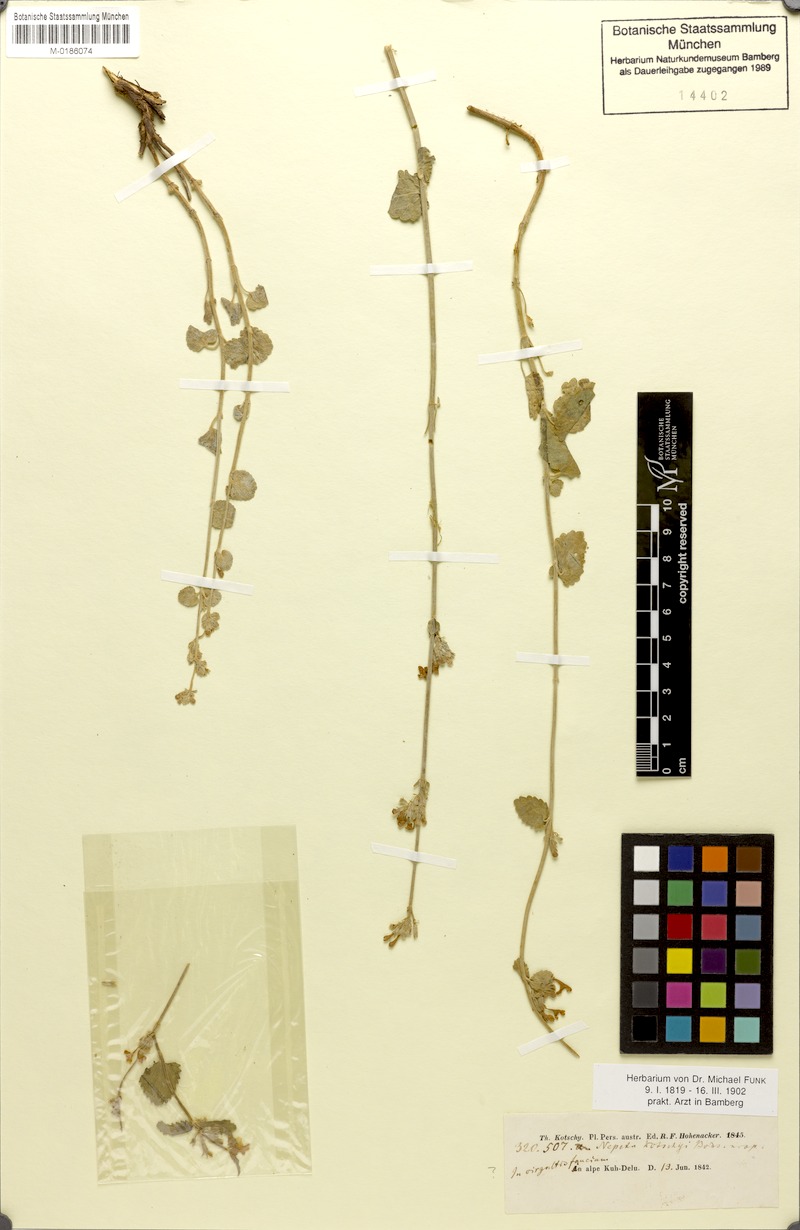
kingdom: Plantae
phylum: Tracheophyta
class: Magnoliopsida
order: Lamiales
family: Lamiaceae
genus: Nepeta
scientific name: Nepeta kotschyi
